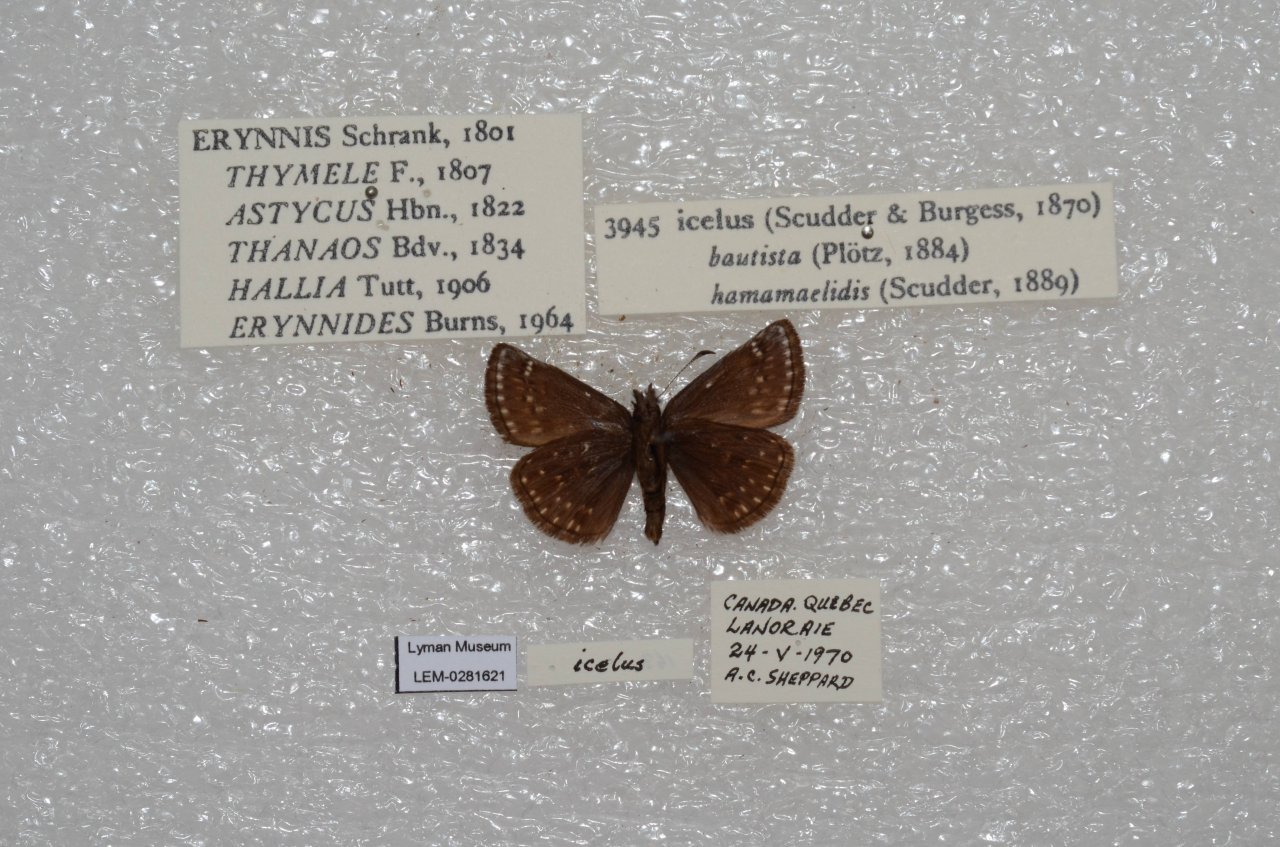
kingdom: Animalia
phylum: Arthropoda
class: Insecta
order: Lepidoptera
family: Hesperiidae
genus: Erynnis
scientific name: Erynnis icelus
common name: Dreamy Duskywing
